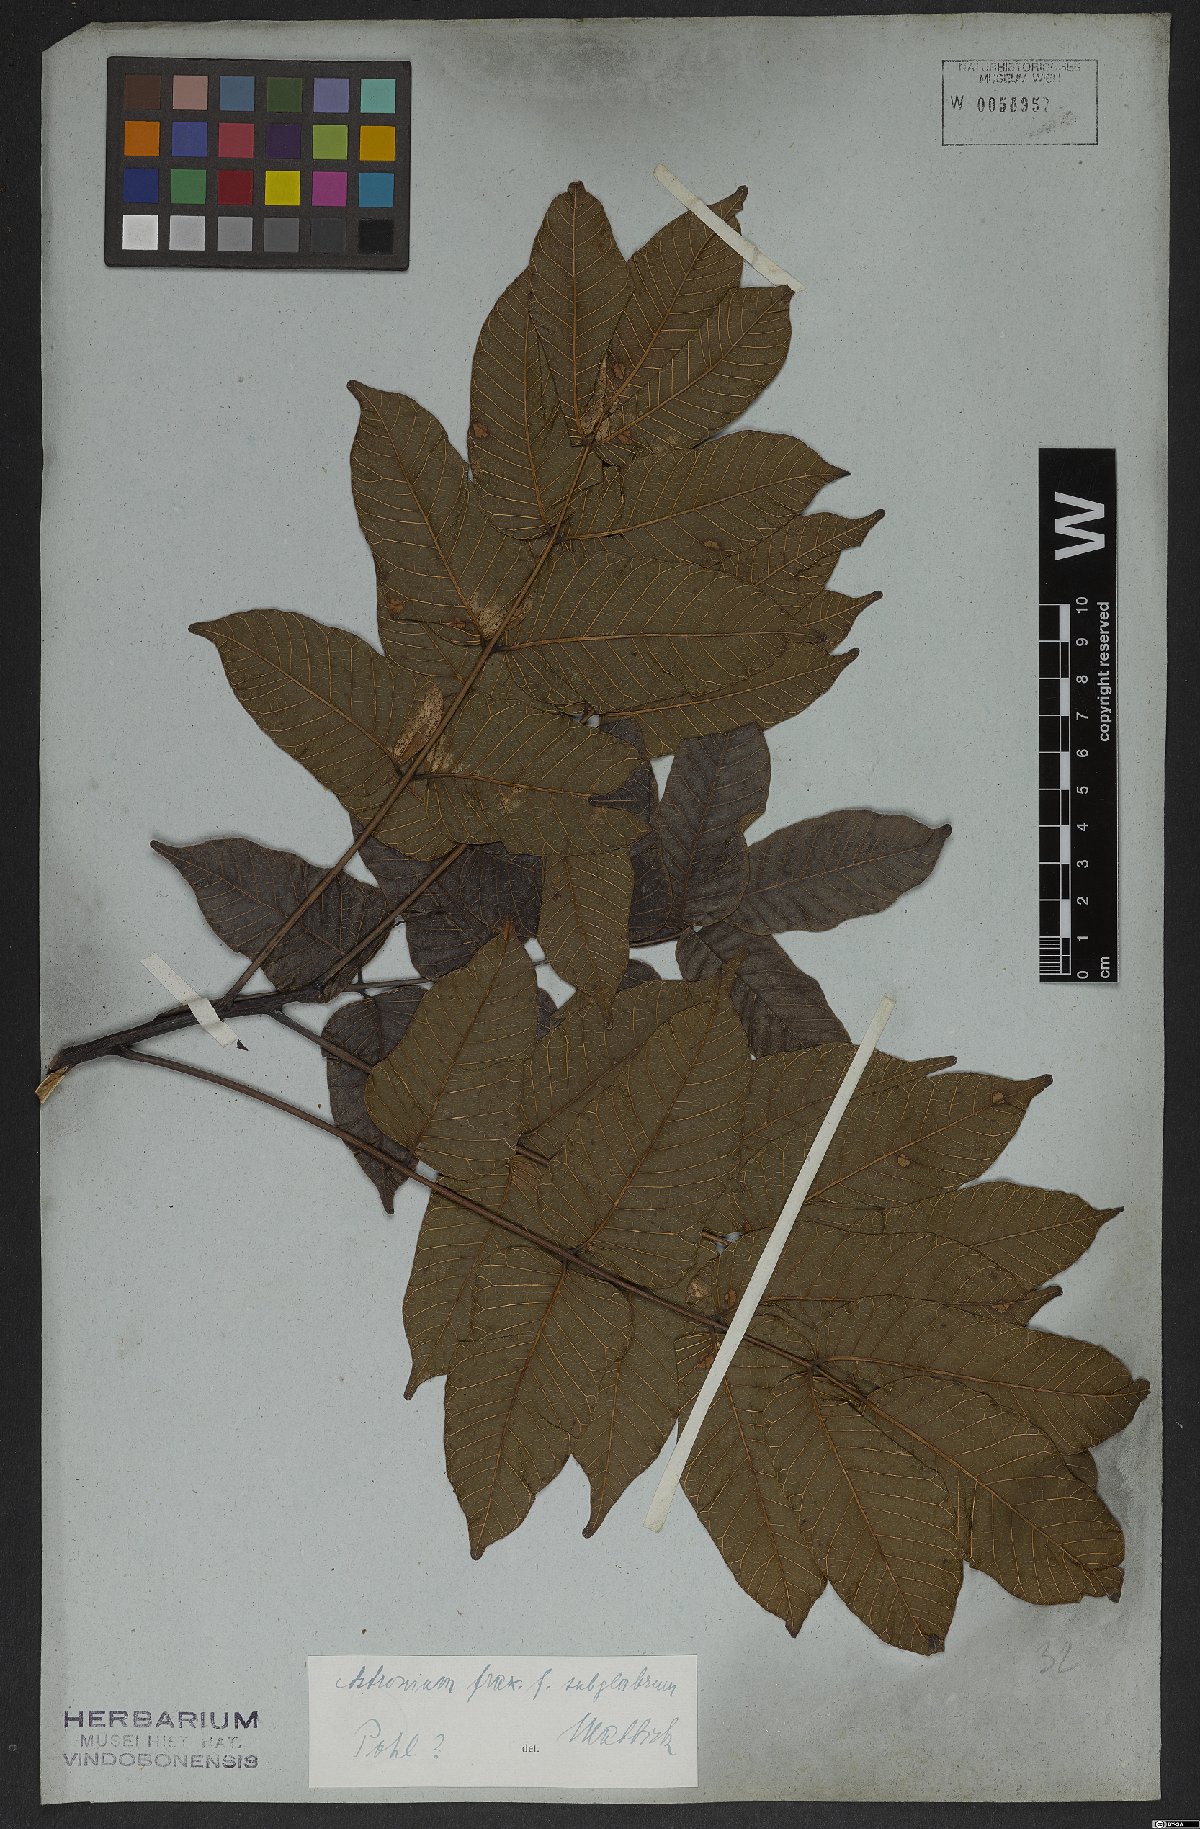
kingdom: Plantae
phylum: Tracheophyta
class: Magnoliopsida
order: Sapindales
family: Anacardiaceae
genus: Astronium
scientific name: Astronium fraxinifolium
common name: Tigerwood
